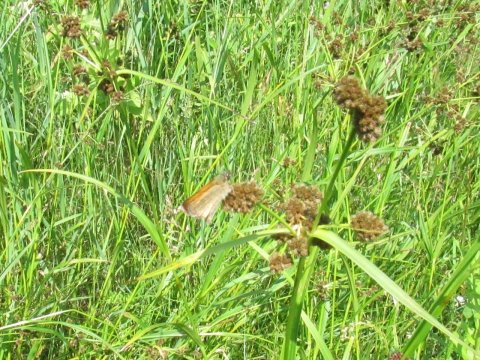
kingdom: Animalia
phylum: Arthropoda
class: Insecta
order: Lepidoptera
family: Hesperiidae
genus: Thymelicus
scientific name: Thymelicus lineola
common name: European Skipper
